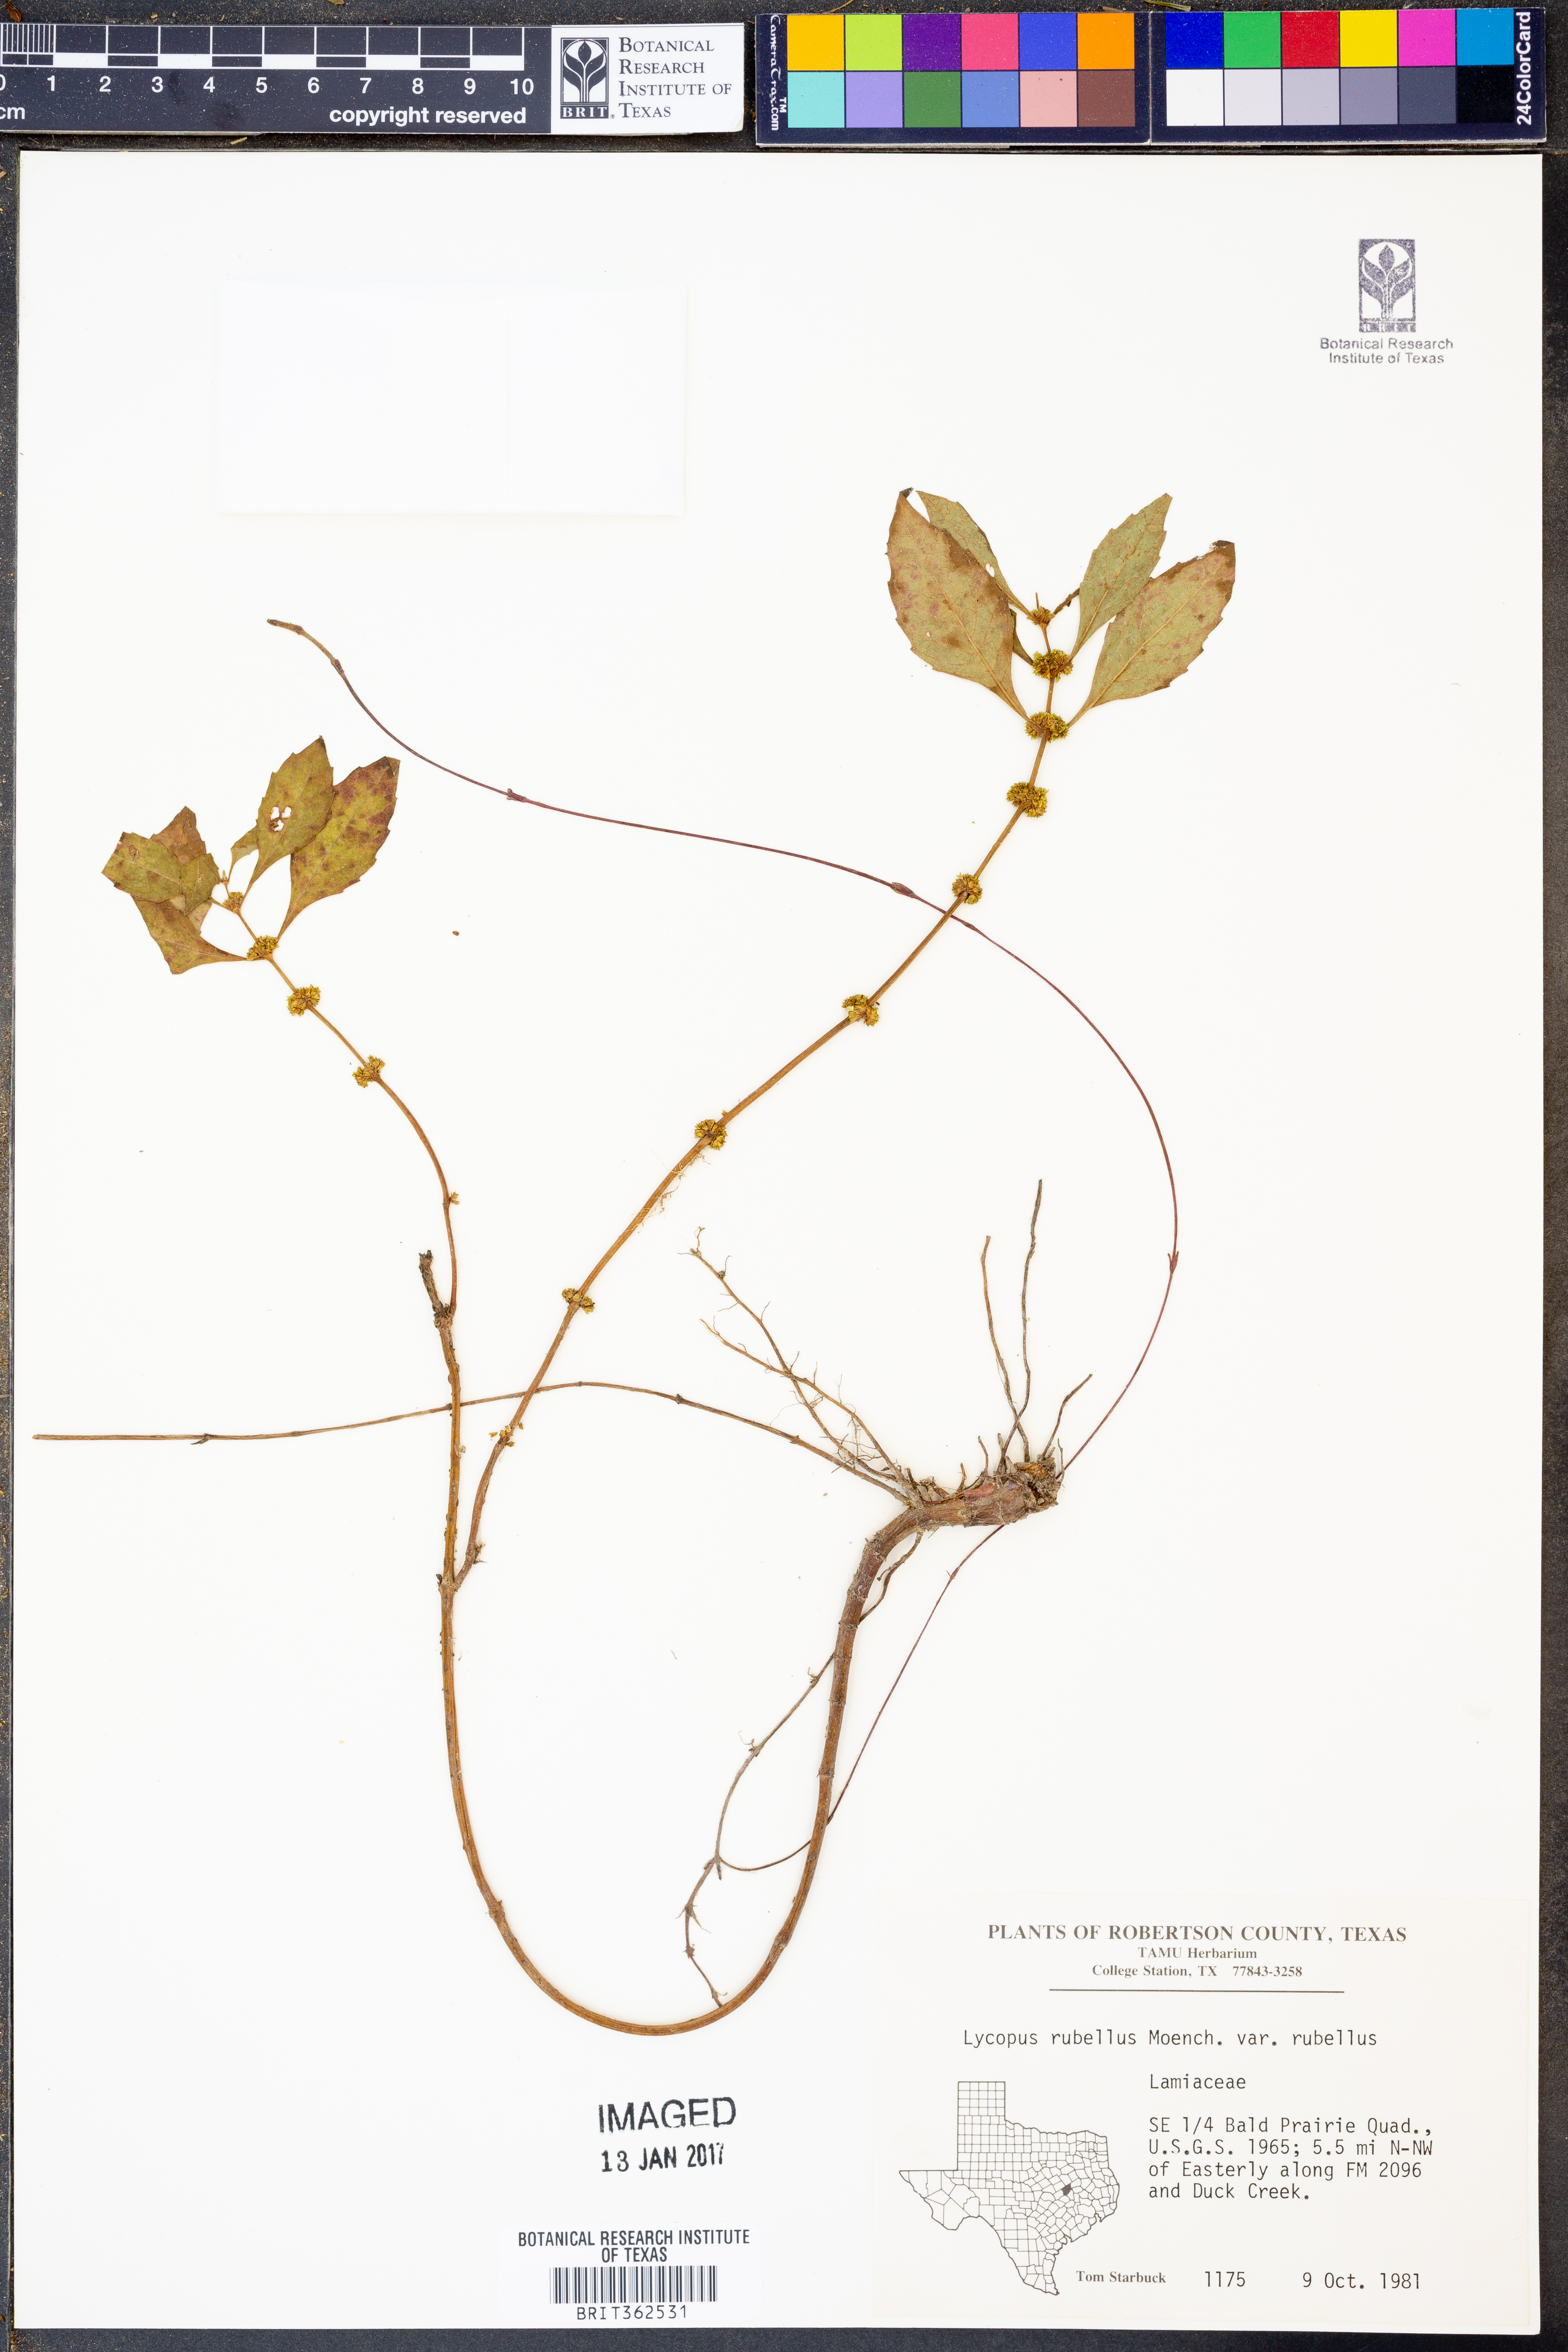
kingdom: Plantae
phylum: Tracheophyta
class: Magnoliopsida
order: Lamiales
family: Lamiaceae
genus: Lycopus
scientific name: Lycopus rubellus
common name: Stalked bugleweed
